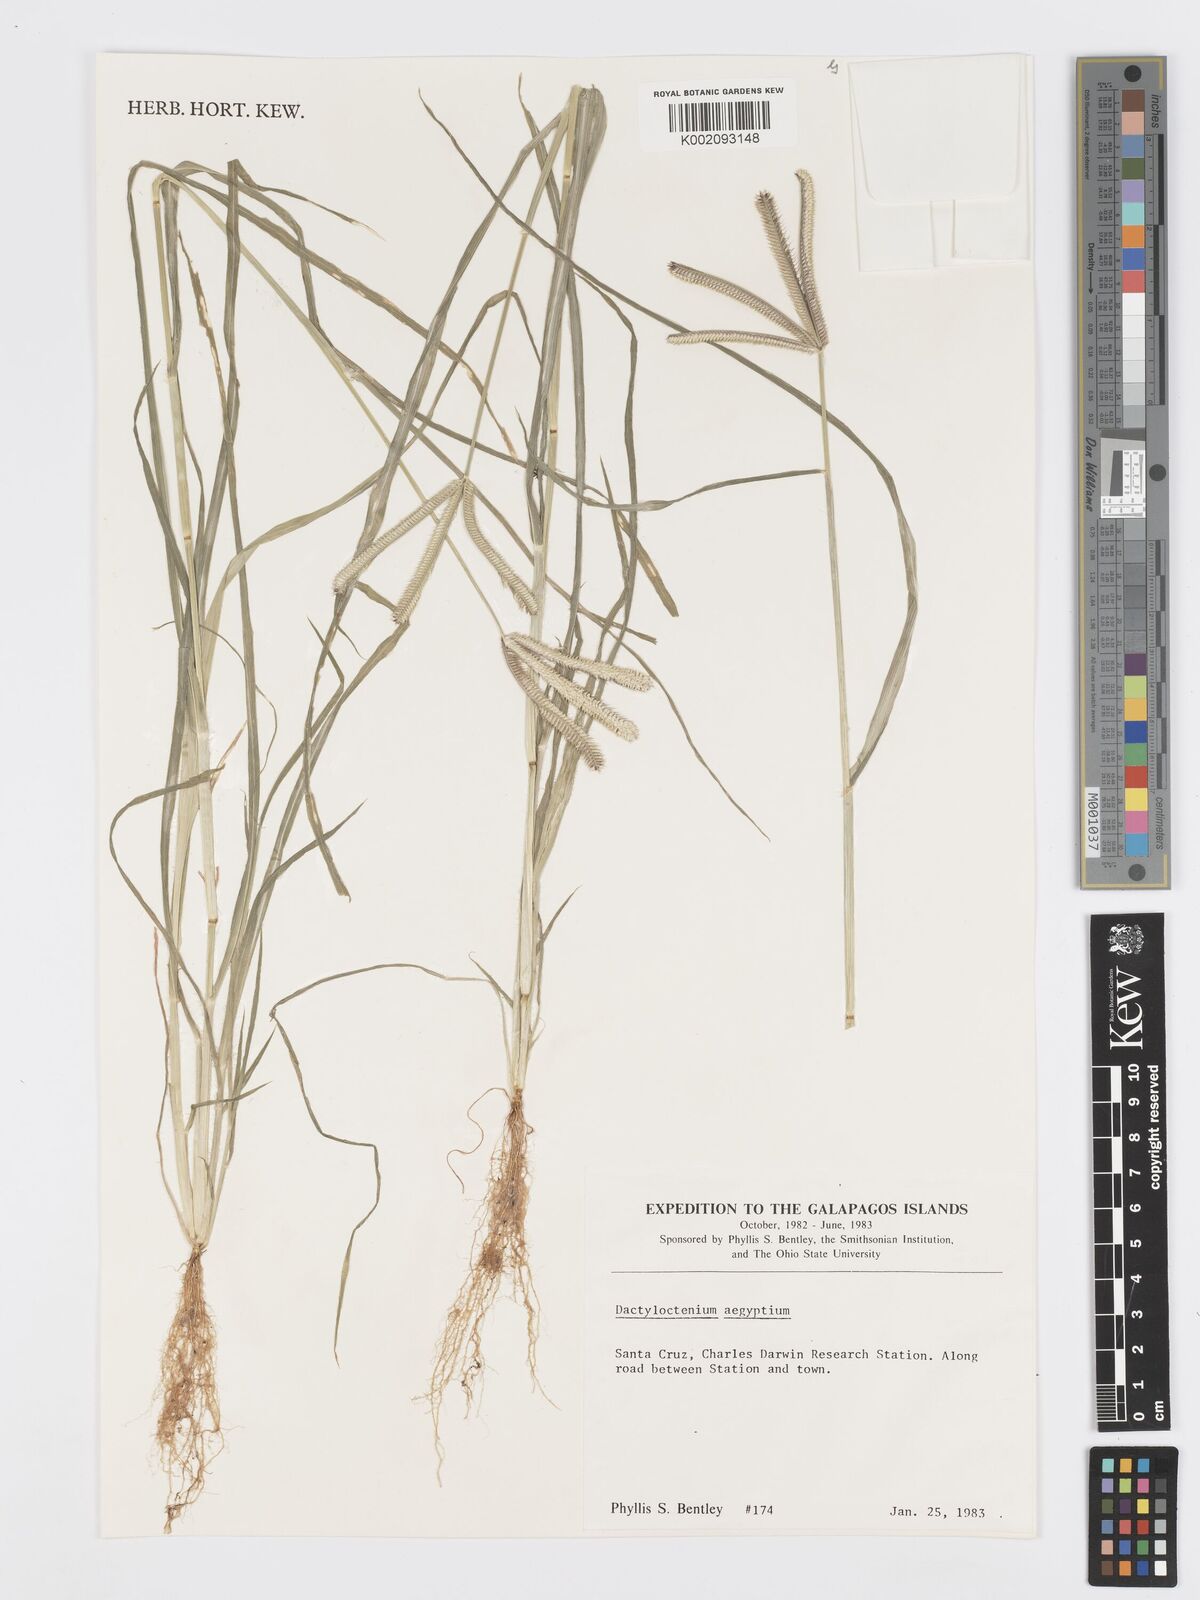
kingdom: Plantae
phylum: Tracheophyta
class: Liliopsida
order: Poales
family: Poaceae
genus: Dactyloctenium
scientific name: Dactyloctenium aegyptium
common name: Egyptian grass
